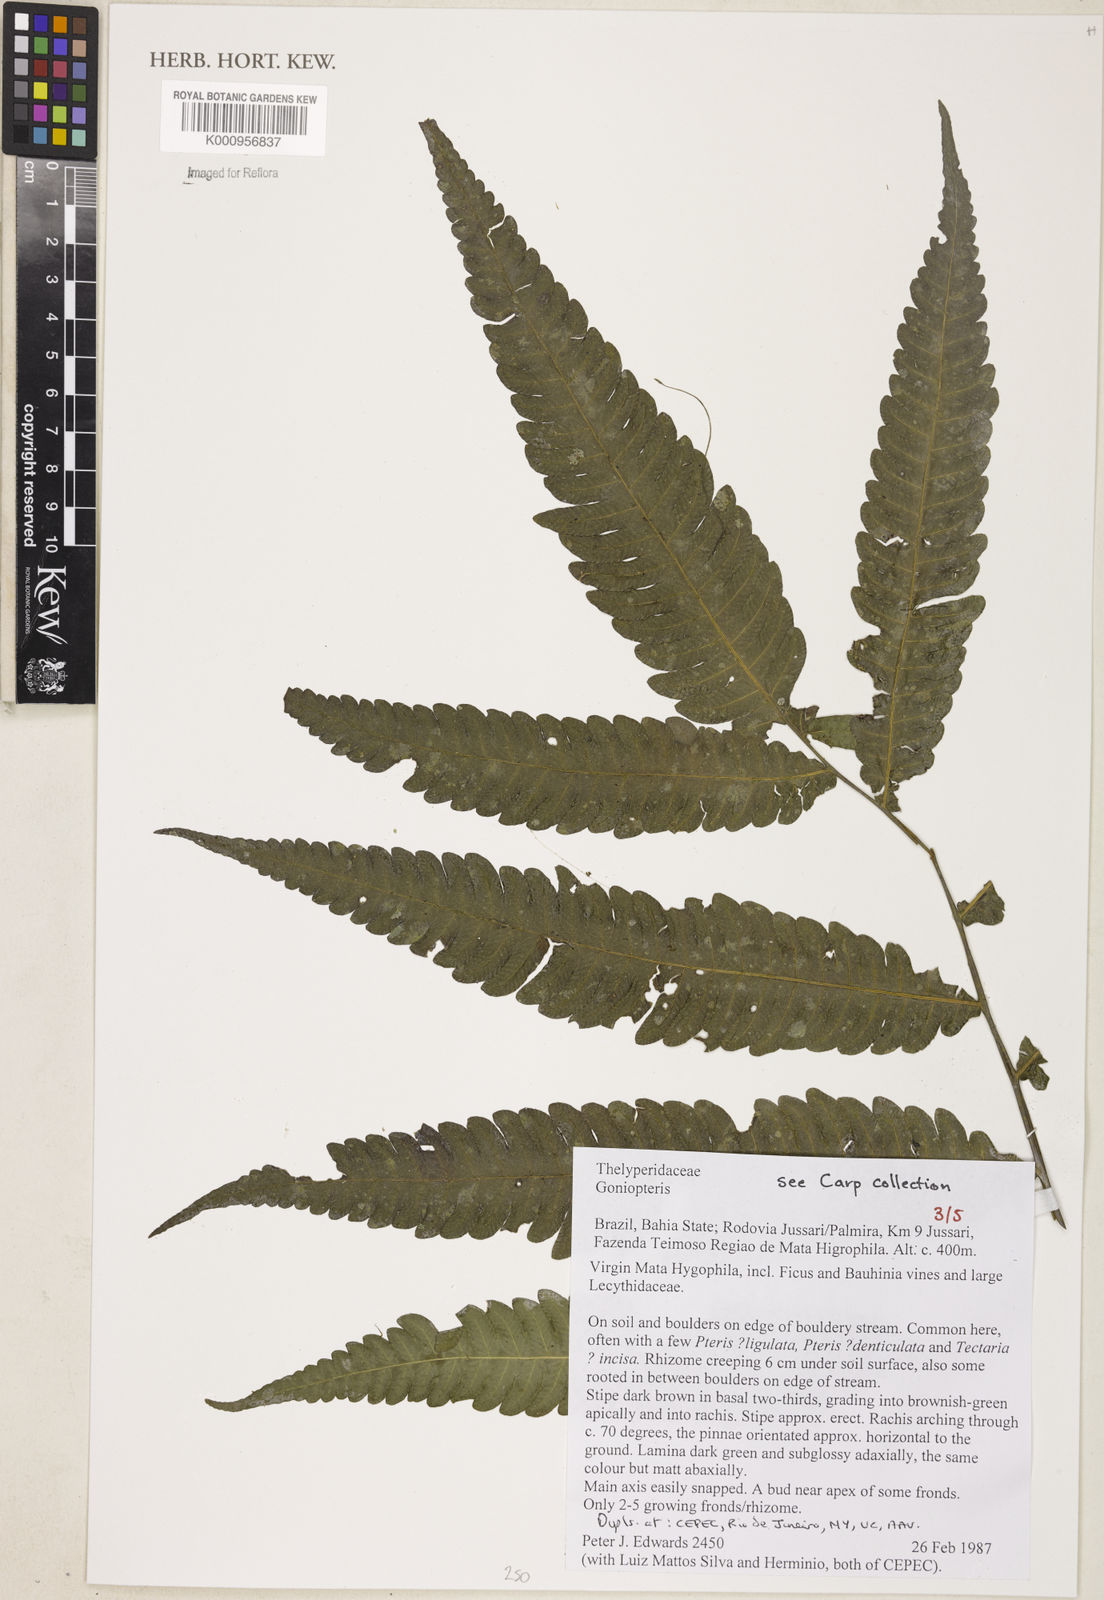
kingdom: Plantae
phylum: Tracheophyta
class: Polypodiopsida
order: Polypodiales
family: Thelypteridaceae
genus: Goniopteris
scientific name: Goniopteris
